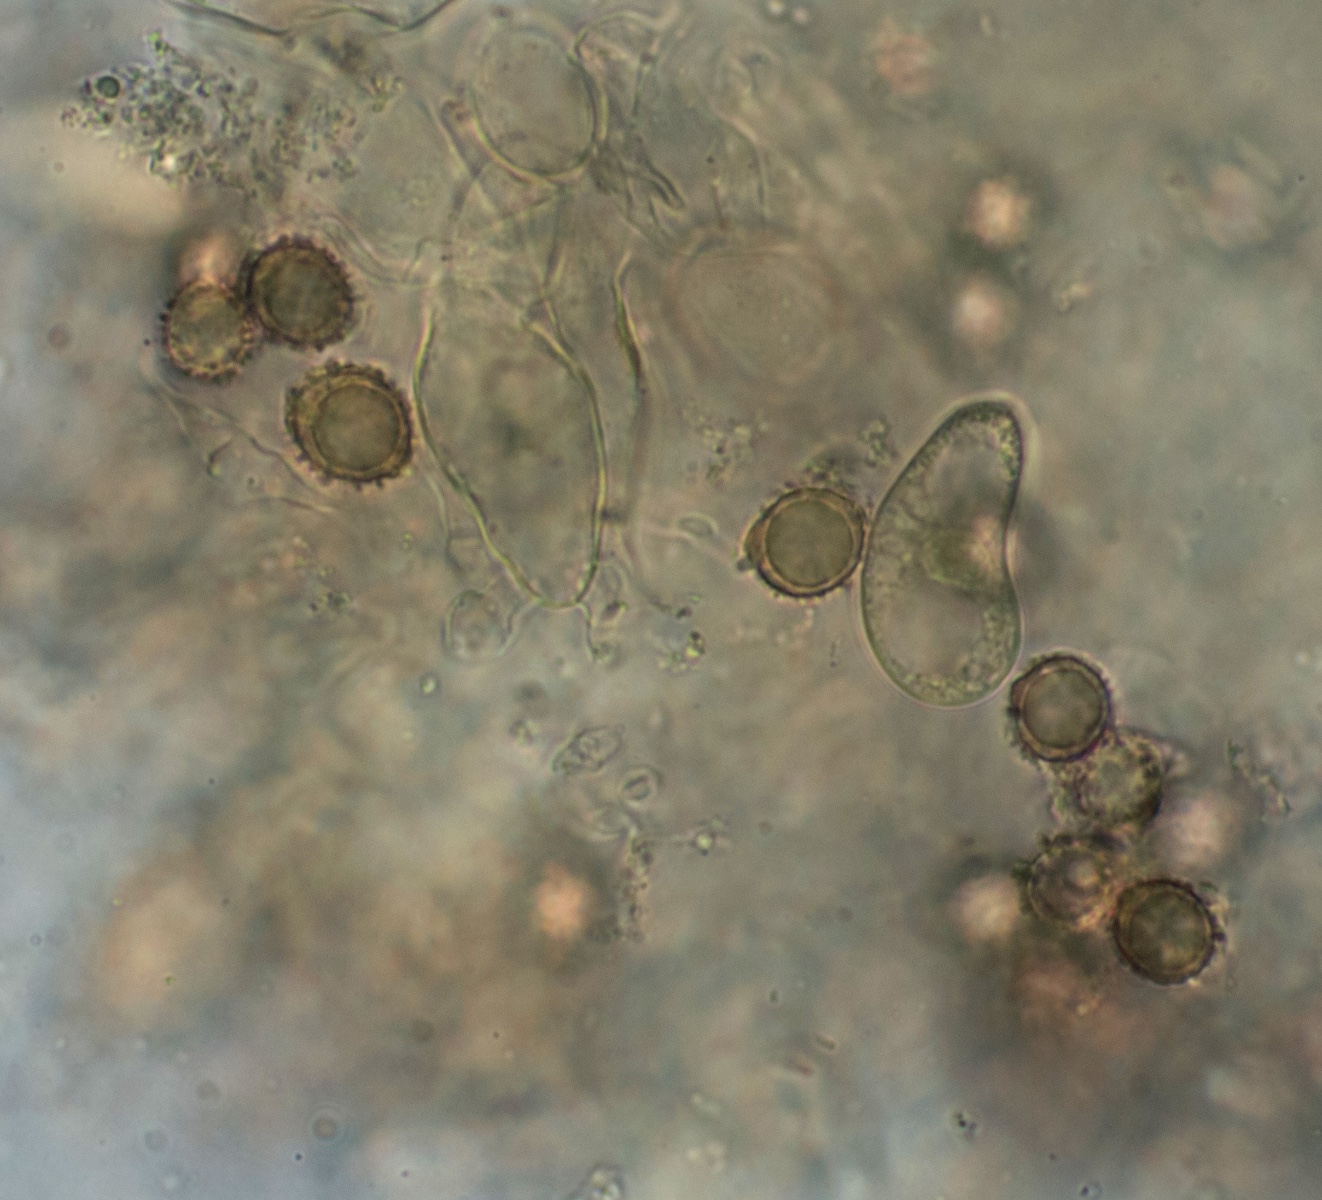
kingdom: Fungi
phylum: Basidiomycota
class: Agaricomycetes
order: Russulales
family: Russulaceae
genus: Russula
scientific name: Russula innocua
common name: lillebitte skørhat
